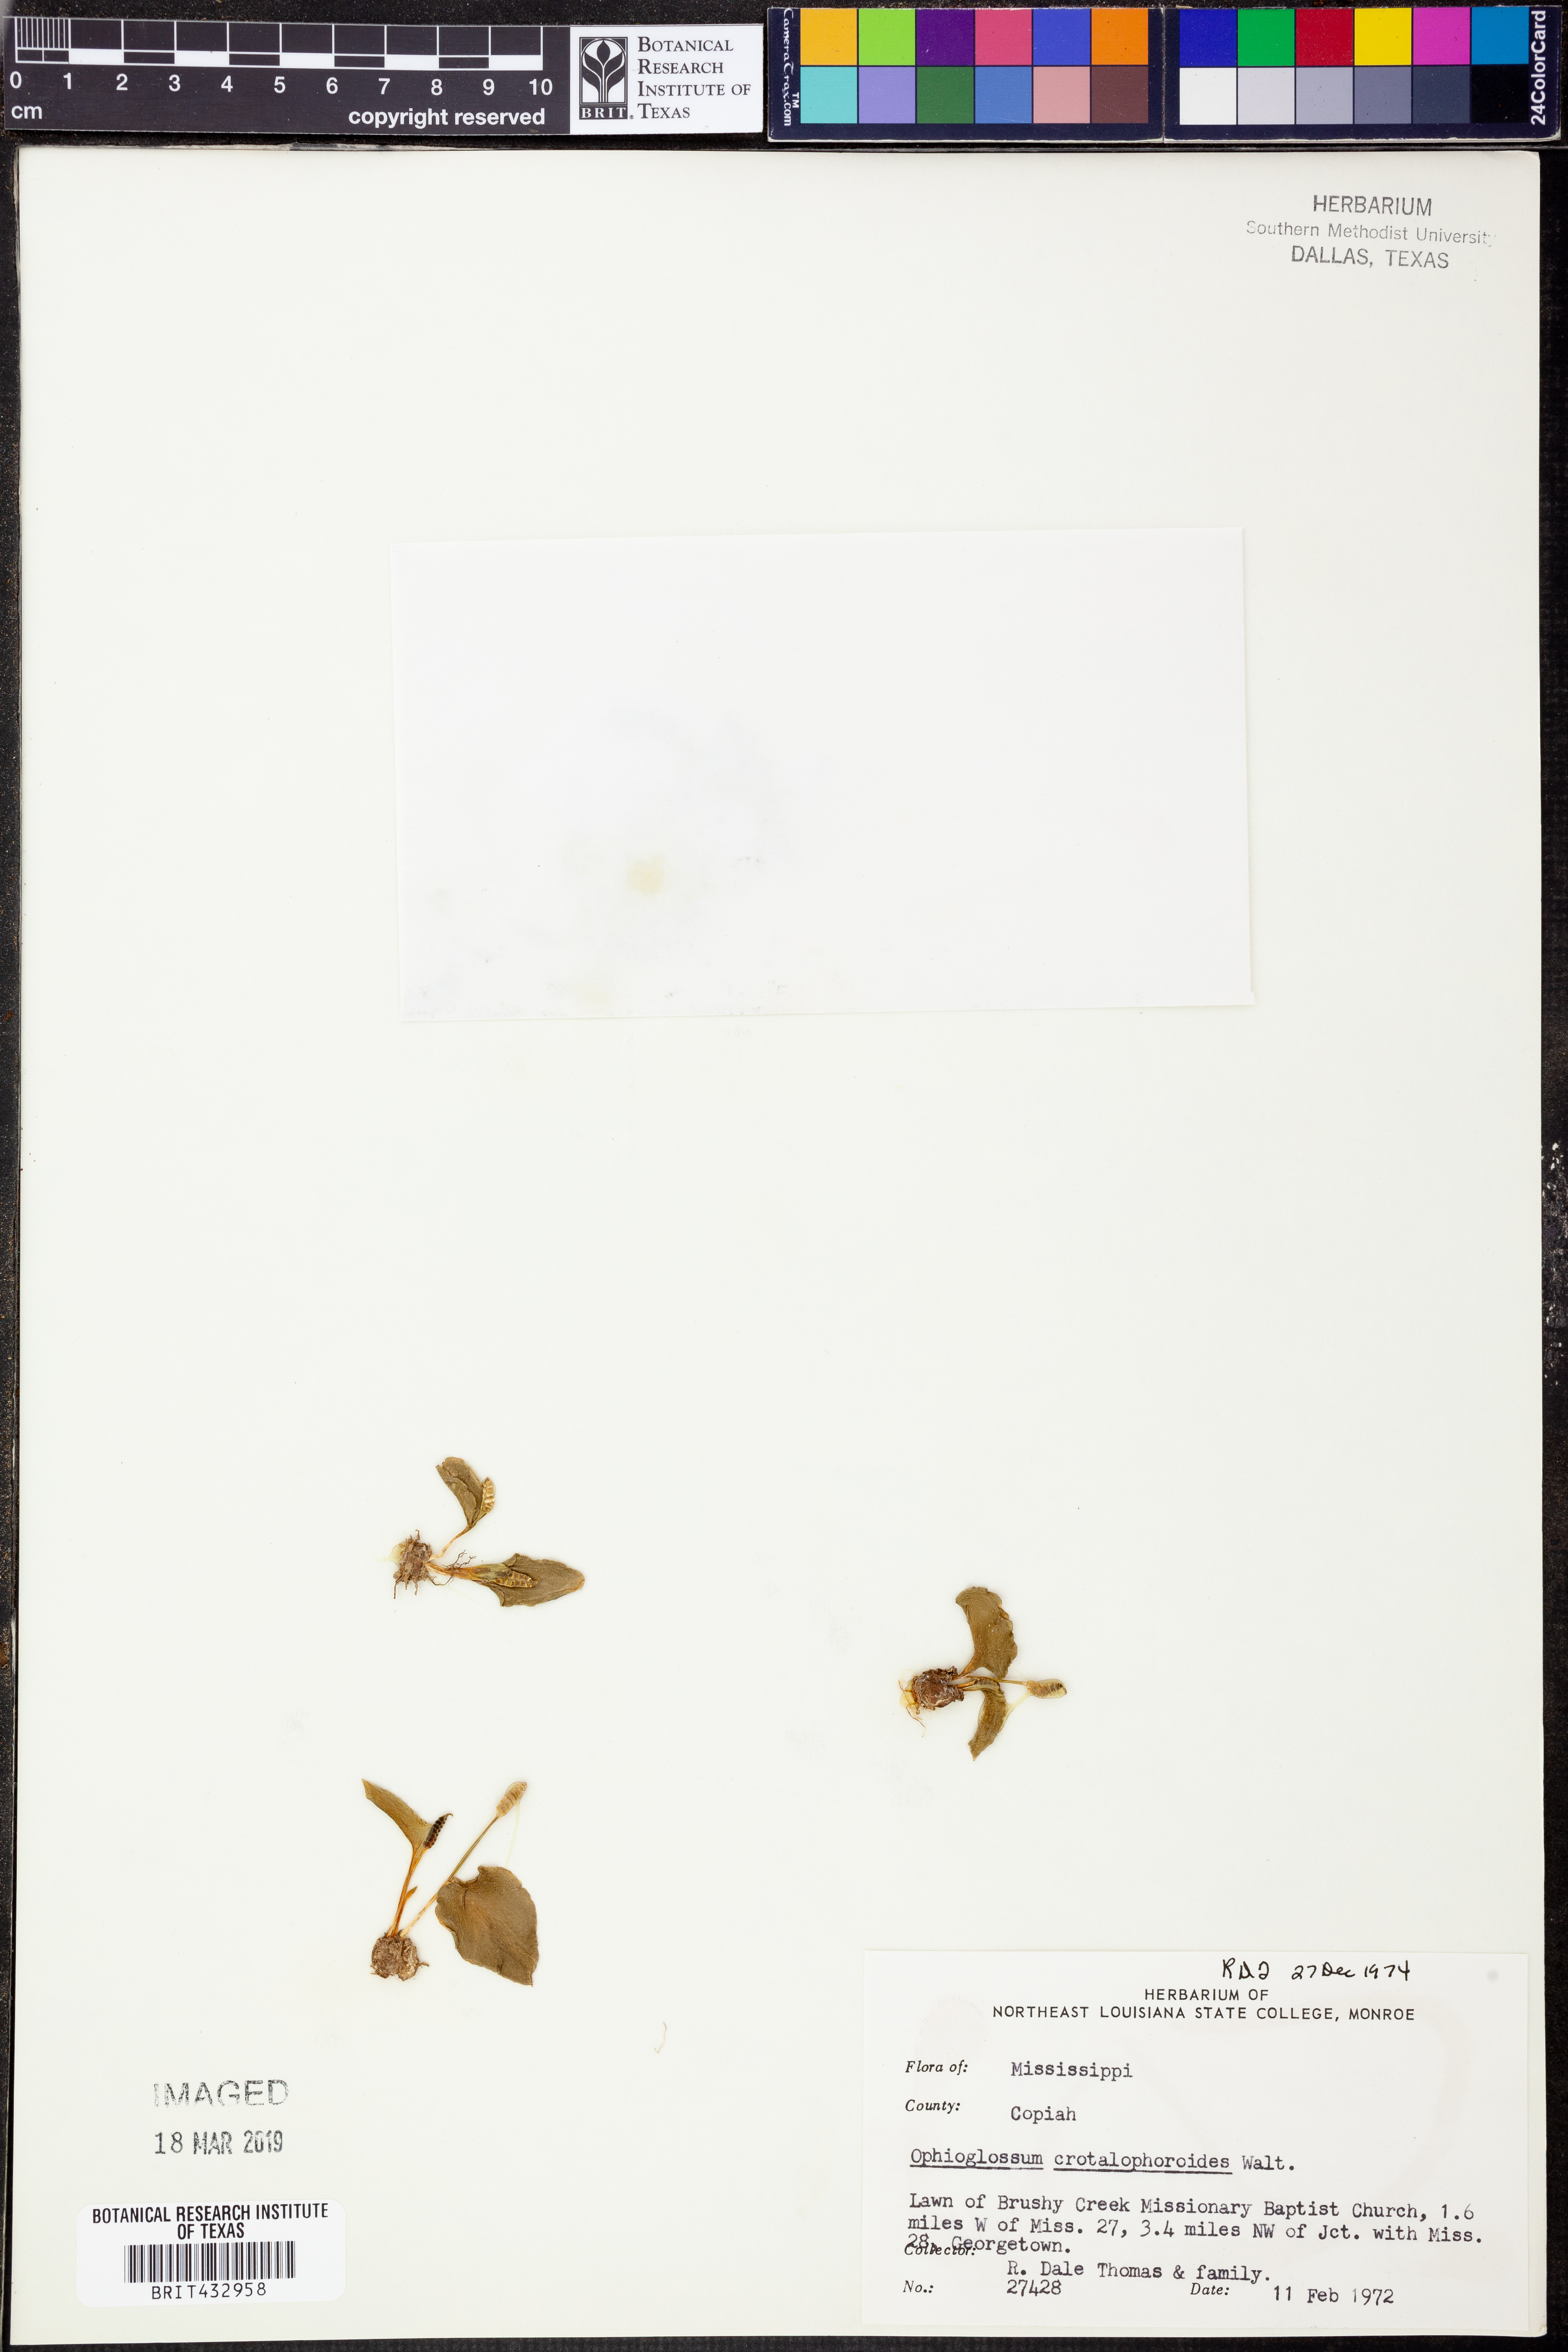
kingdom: Plantae
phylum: Tracheophyta
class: Polypodiopsida
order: Ophioglossales
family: Ophioglossaceae
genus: Ophioglossum
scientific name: Ophioglossum crotalophoroides
